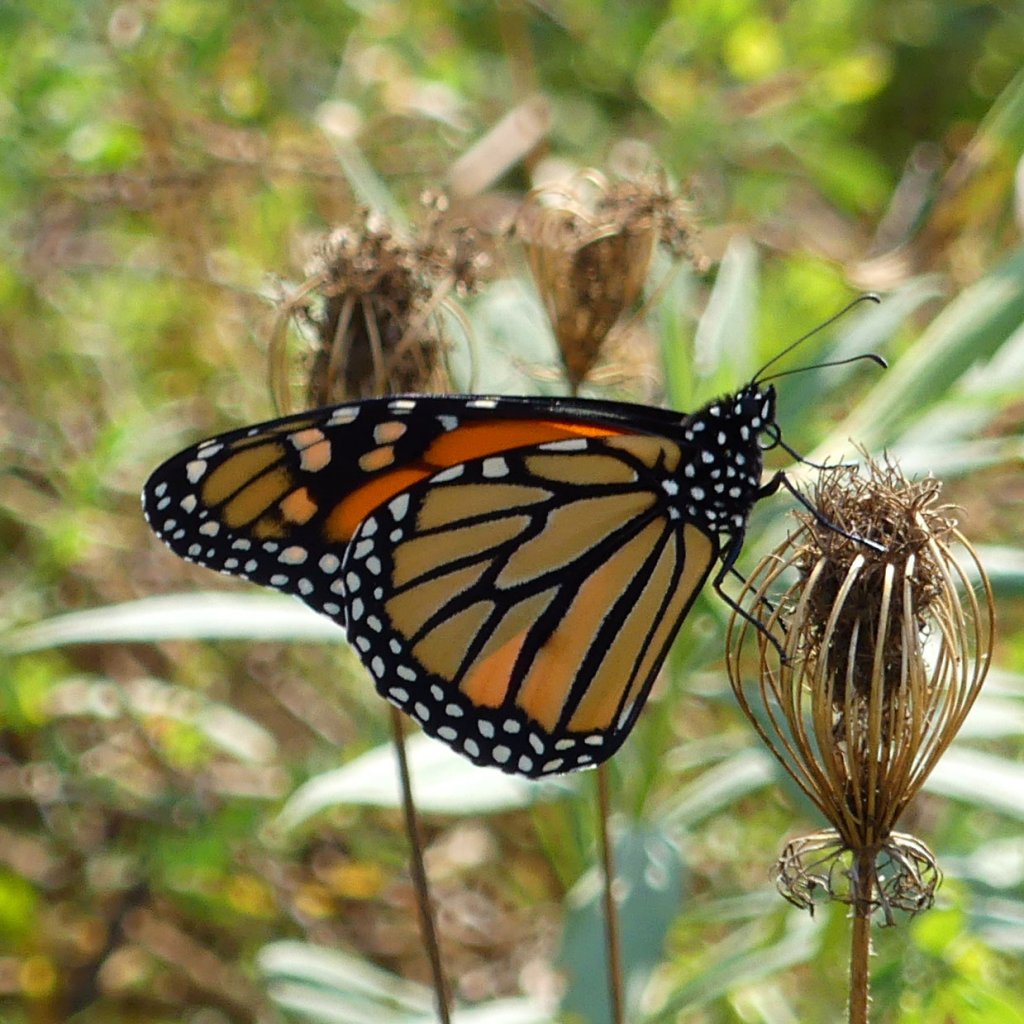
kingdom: Animalia
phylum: Arthropoda
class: Insecta
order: Lepidoptera
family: Nymphalidae
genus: Danaus
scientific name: Danaus plexippus
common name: Monarch
